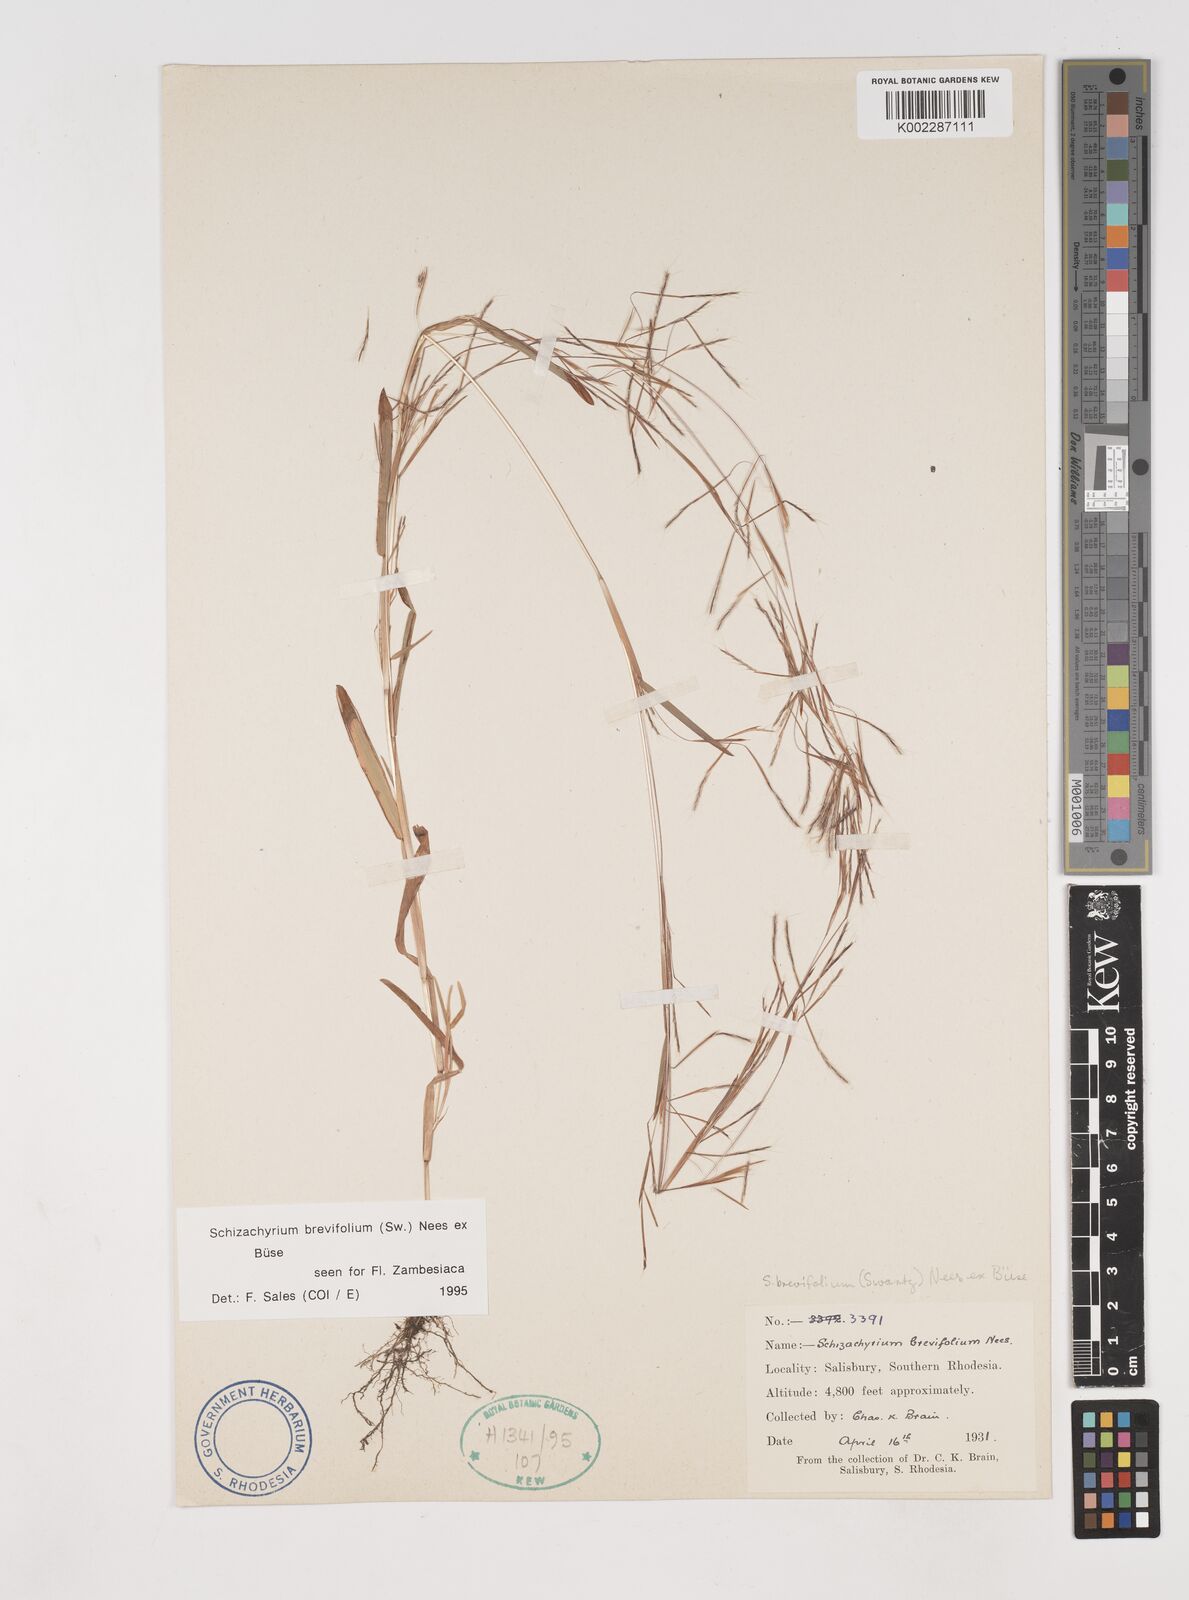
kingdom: Plantae
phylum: Tracheophyta
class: Liliopsida
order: Poales
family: Poaceae
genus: Schizachyrium
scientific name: Schizachyrium brevifolium
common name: Serillo dulce
